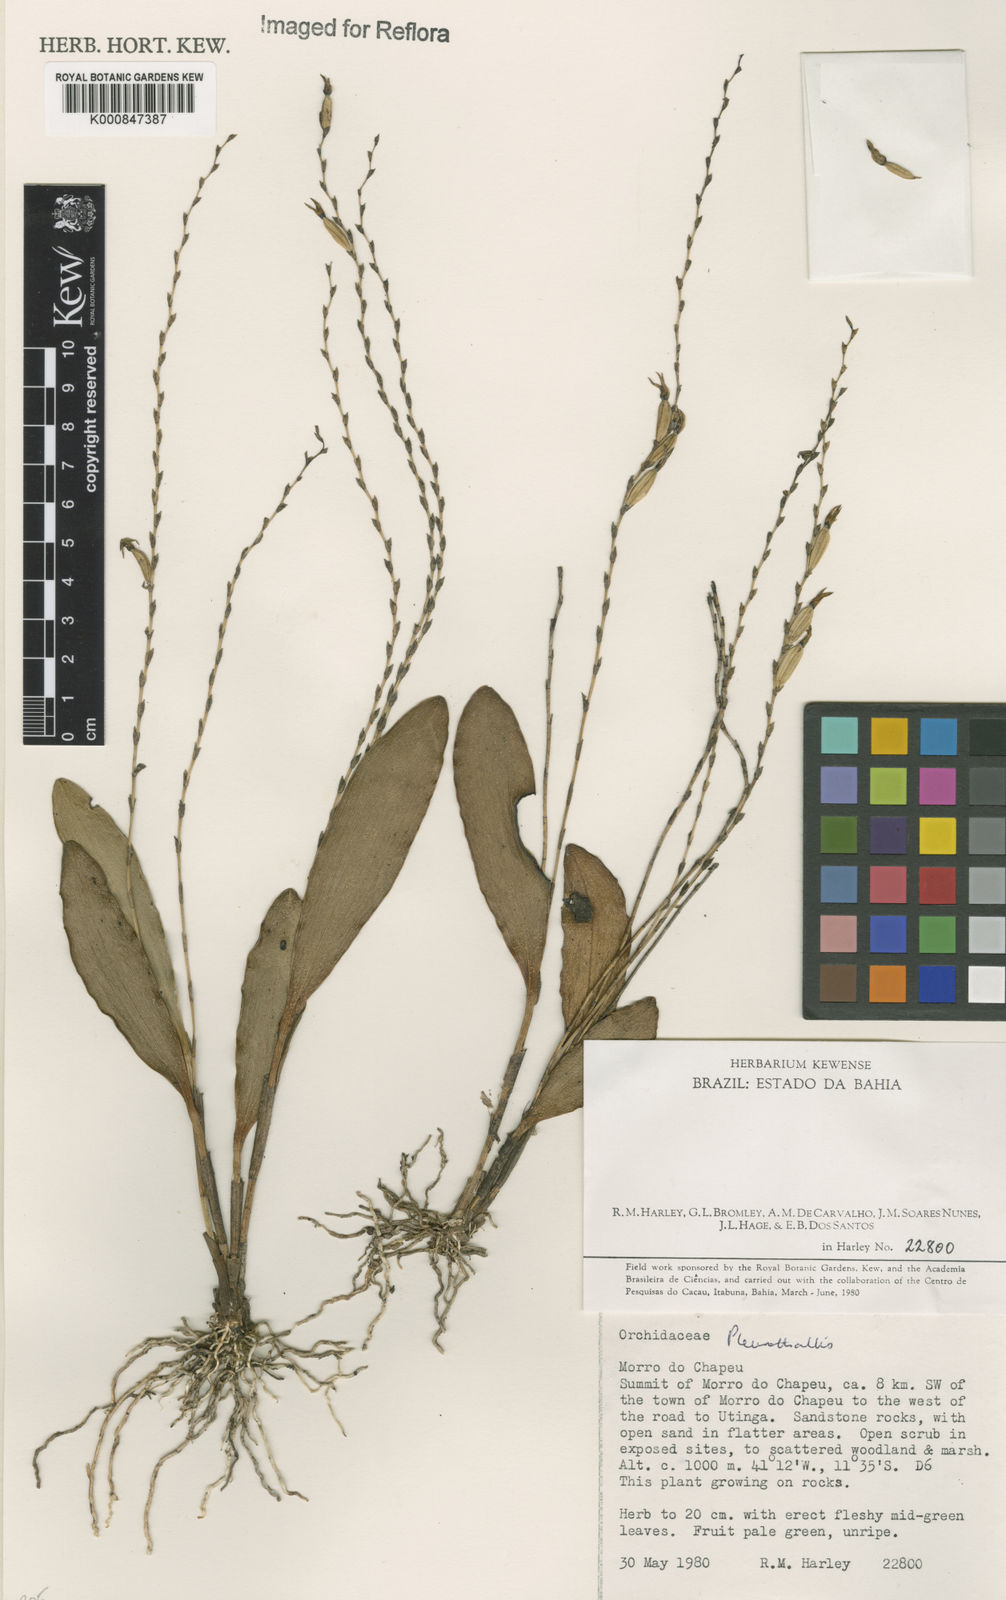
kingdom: Plantae
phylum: Tracheophyta
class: Liliopsida
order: Asparagales
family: Orchidaceae
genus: Pleurothallis
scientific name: Pleurothallis
